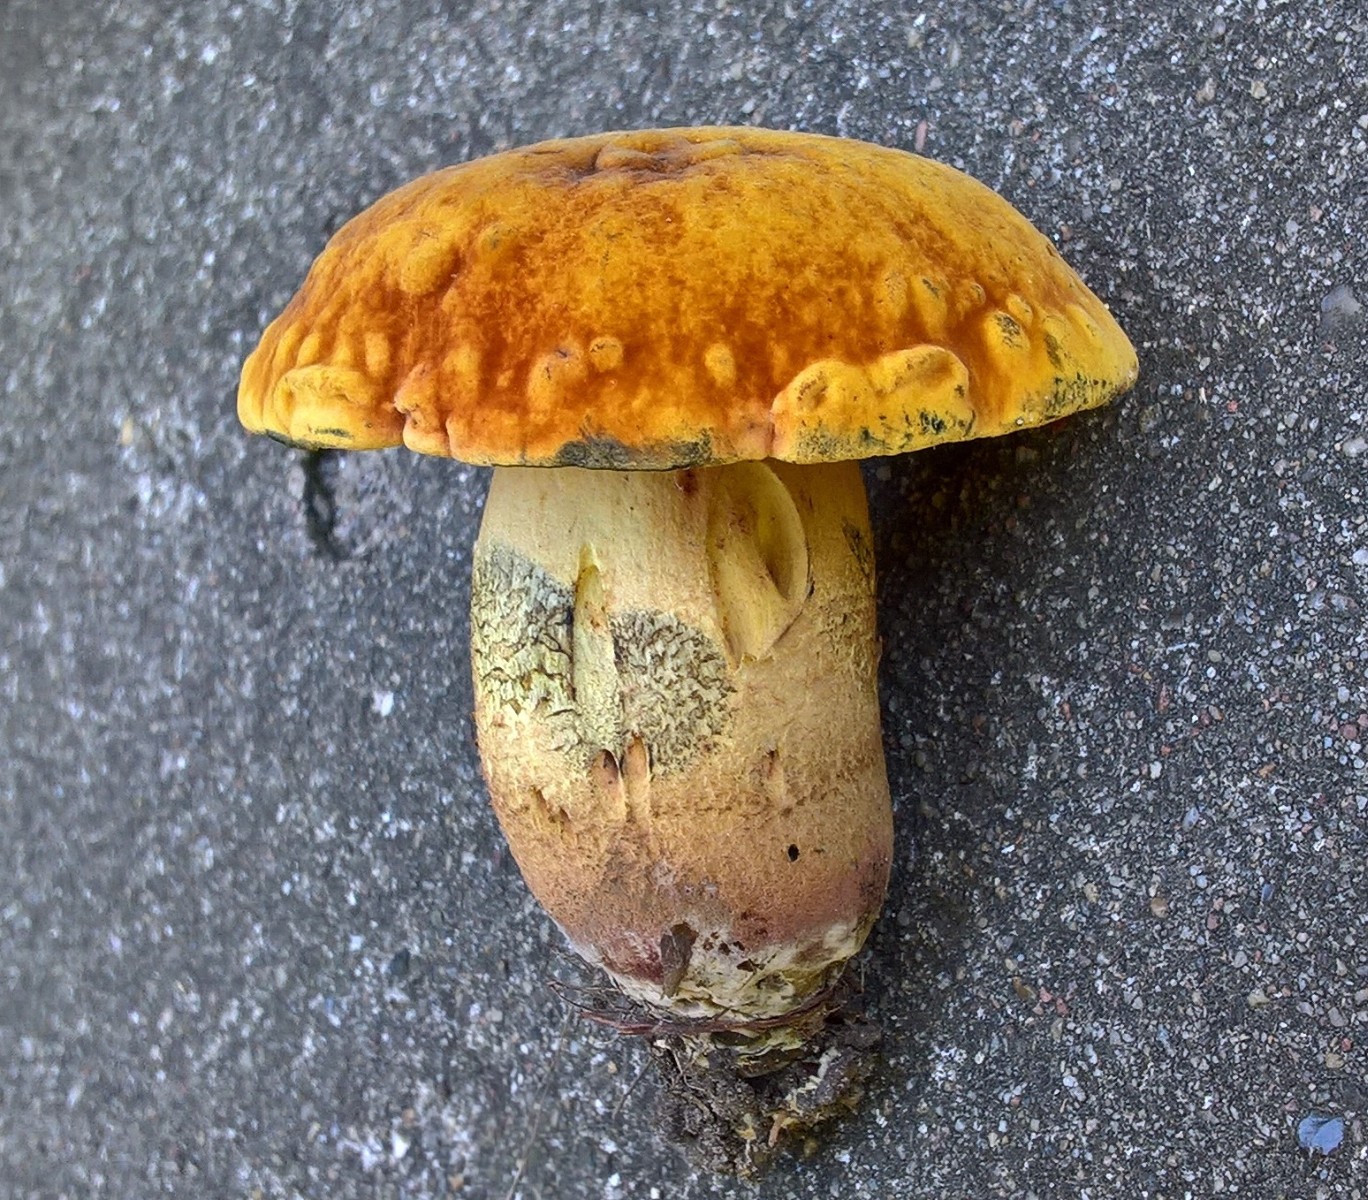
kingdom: Fungi
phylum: Basidiomycota
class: Agaricomycetes
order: Boletales
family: Boletaceae
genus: Suillellus
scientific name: Suillellus queletii
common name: glatstokket indigorørhat
